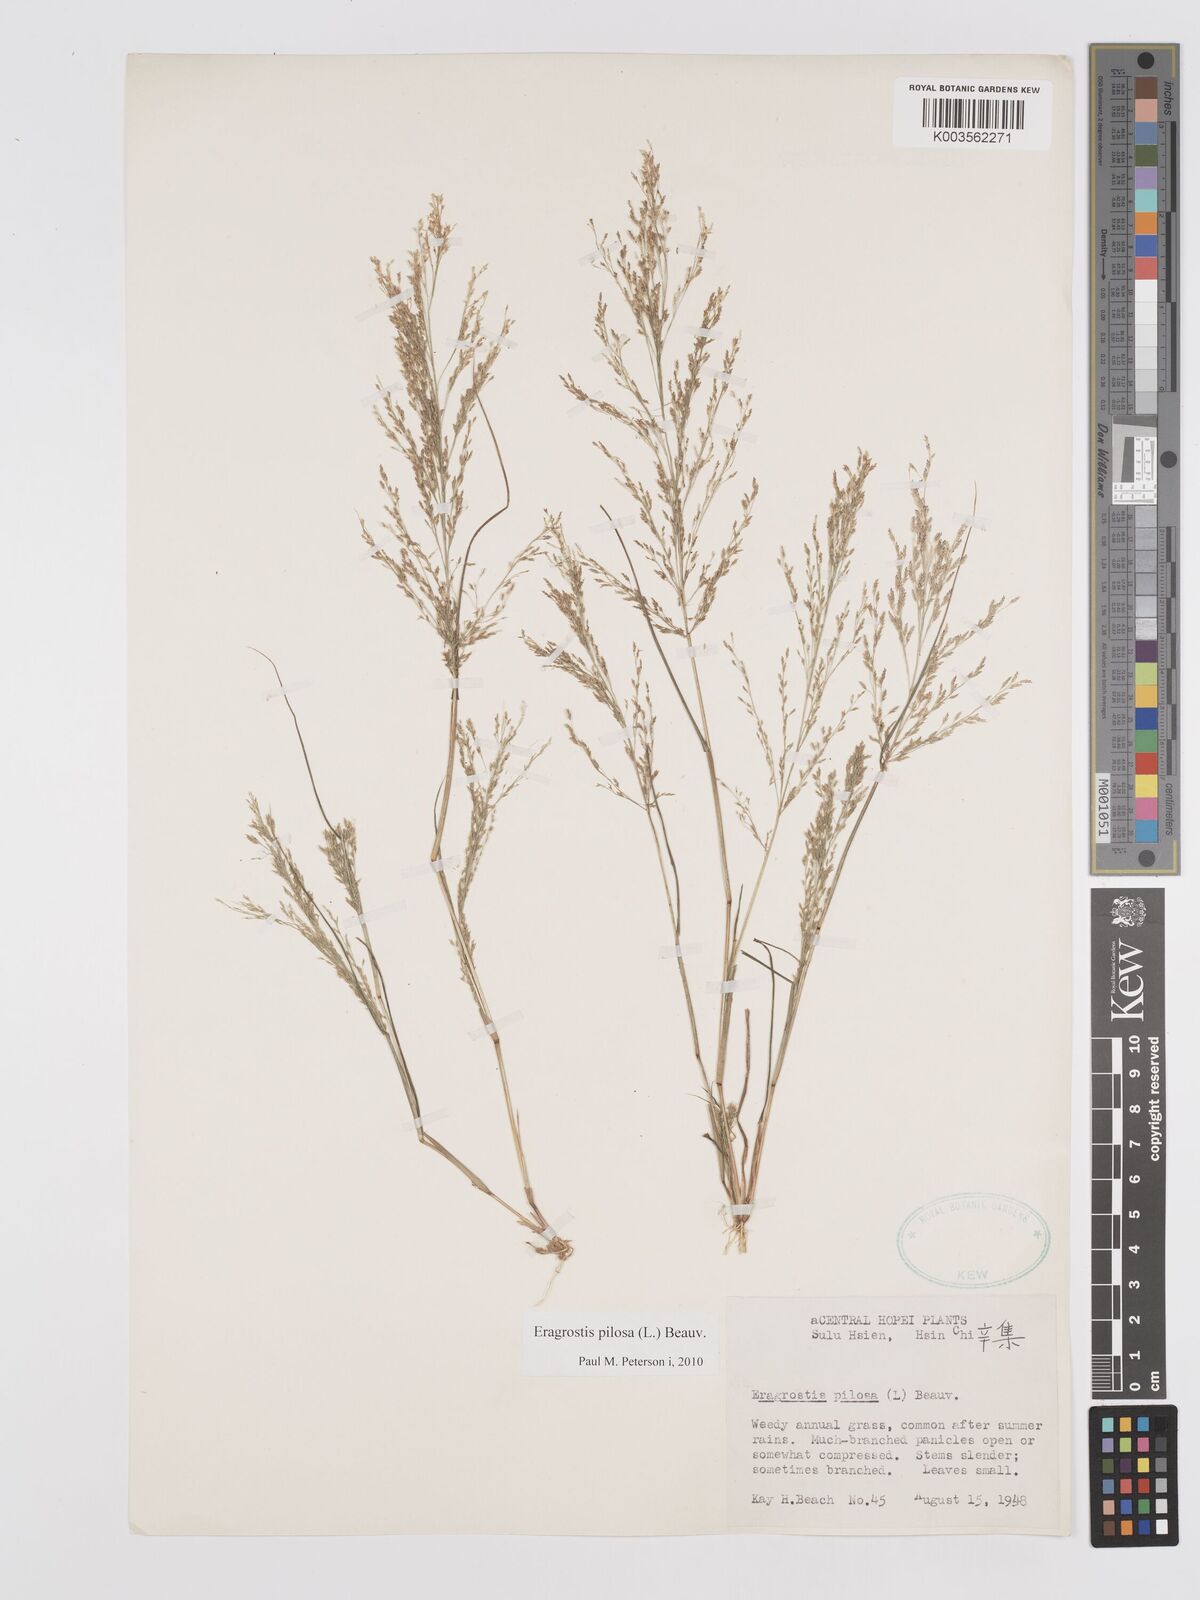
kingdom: Plantae
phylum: Tracheophyta
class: Liliopsida
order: Poales
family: Poaceae
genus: Eragrostis
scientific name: Eragrostis pilosa
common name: Indian lovegrass
